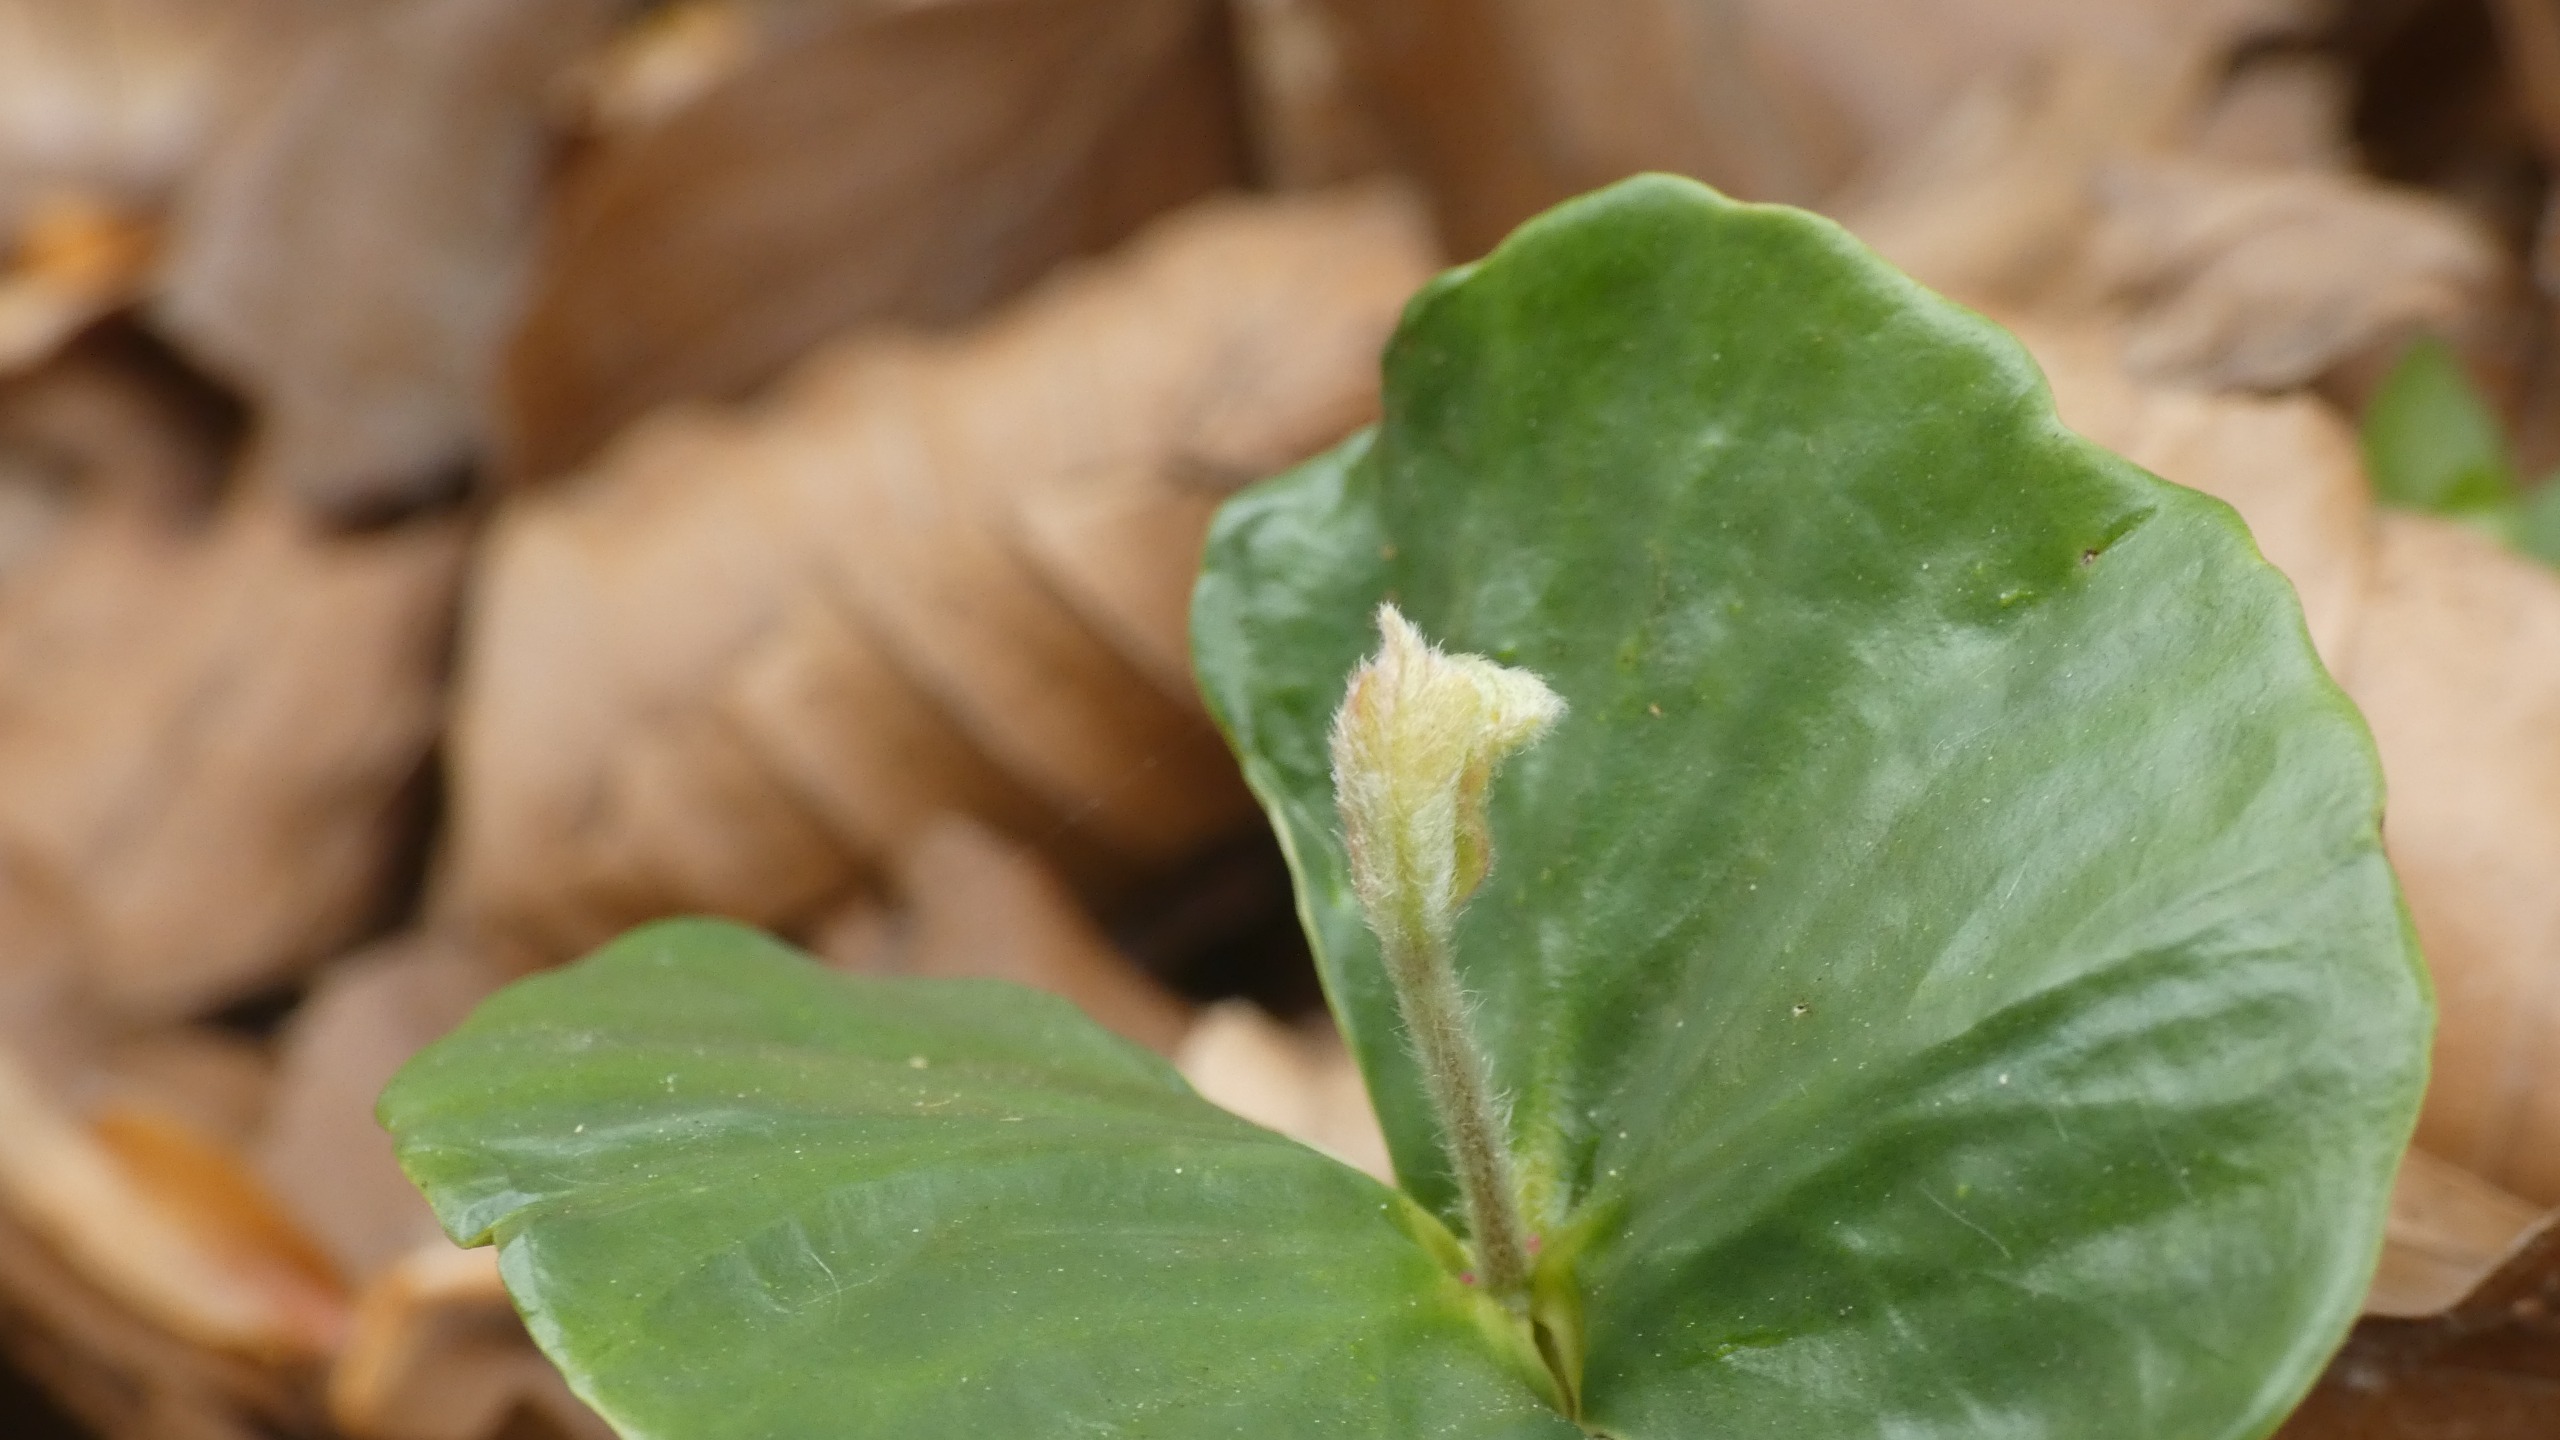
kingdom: Plantae
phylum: Tracheophyta
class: Magnoliopsida
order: Fagales
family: Fagaceae
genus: Fagus
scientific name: Fagus sylvatica
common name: Bøg
